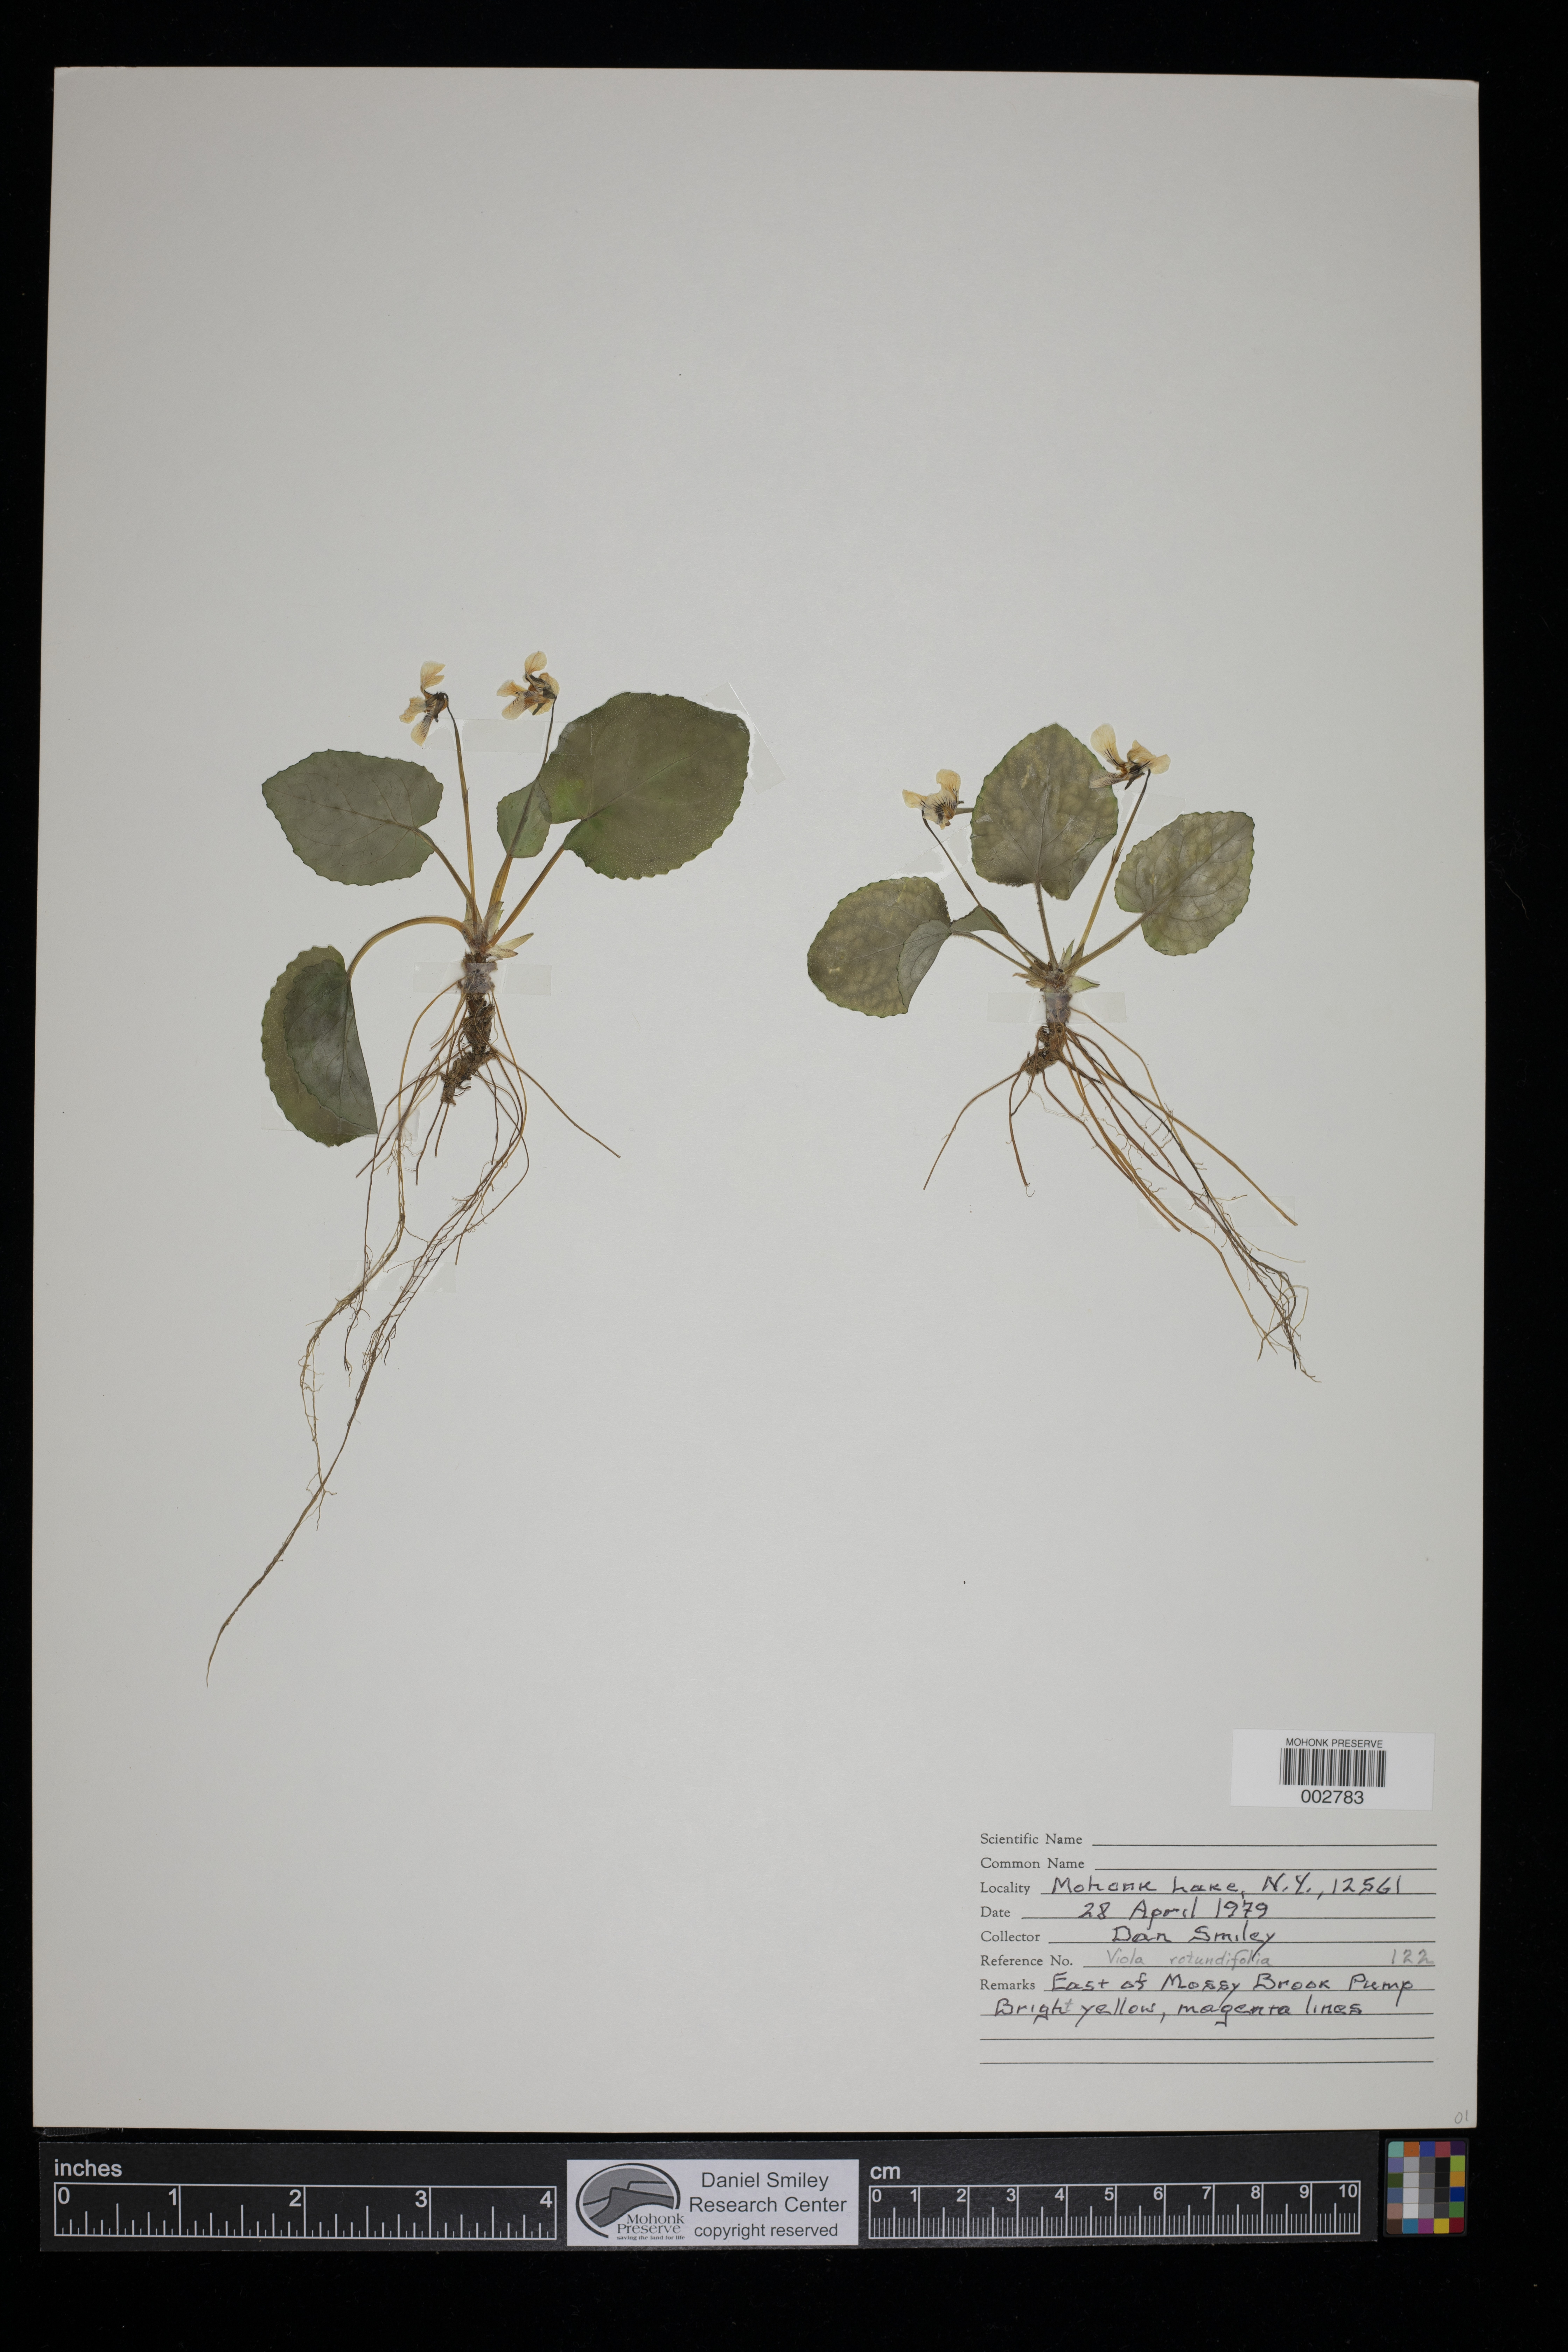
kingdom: Plantae
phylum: Tracheophyta
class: Magnoliopsida
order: Malpighiales
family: Violaceae
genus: Viola
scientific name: Viola rotundifolia
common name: Early yellow violet
